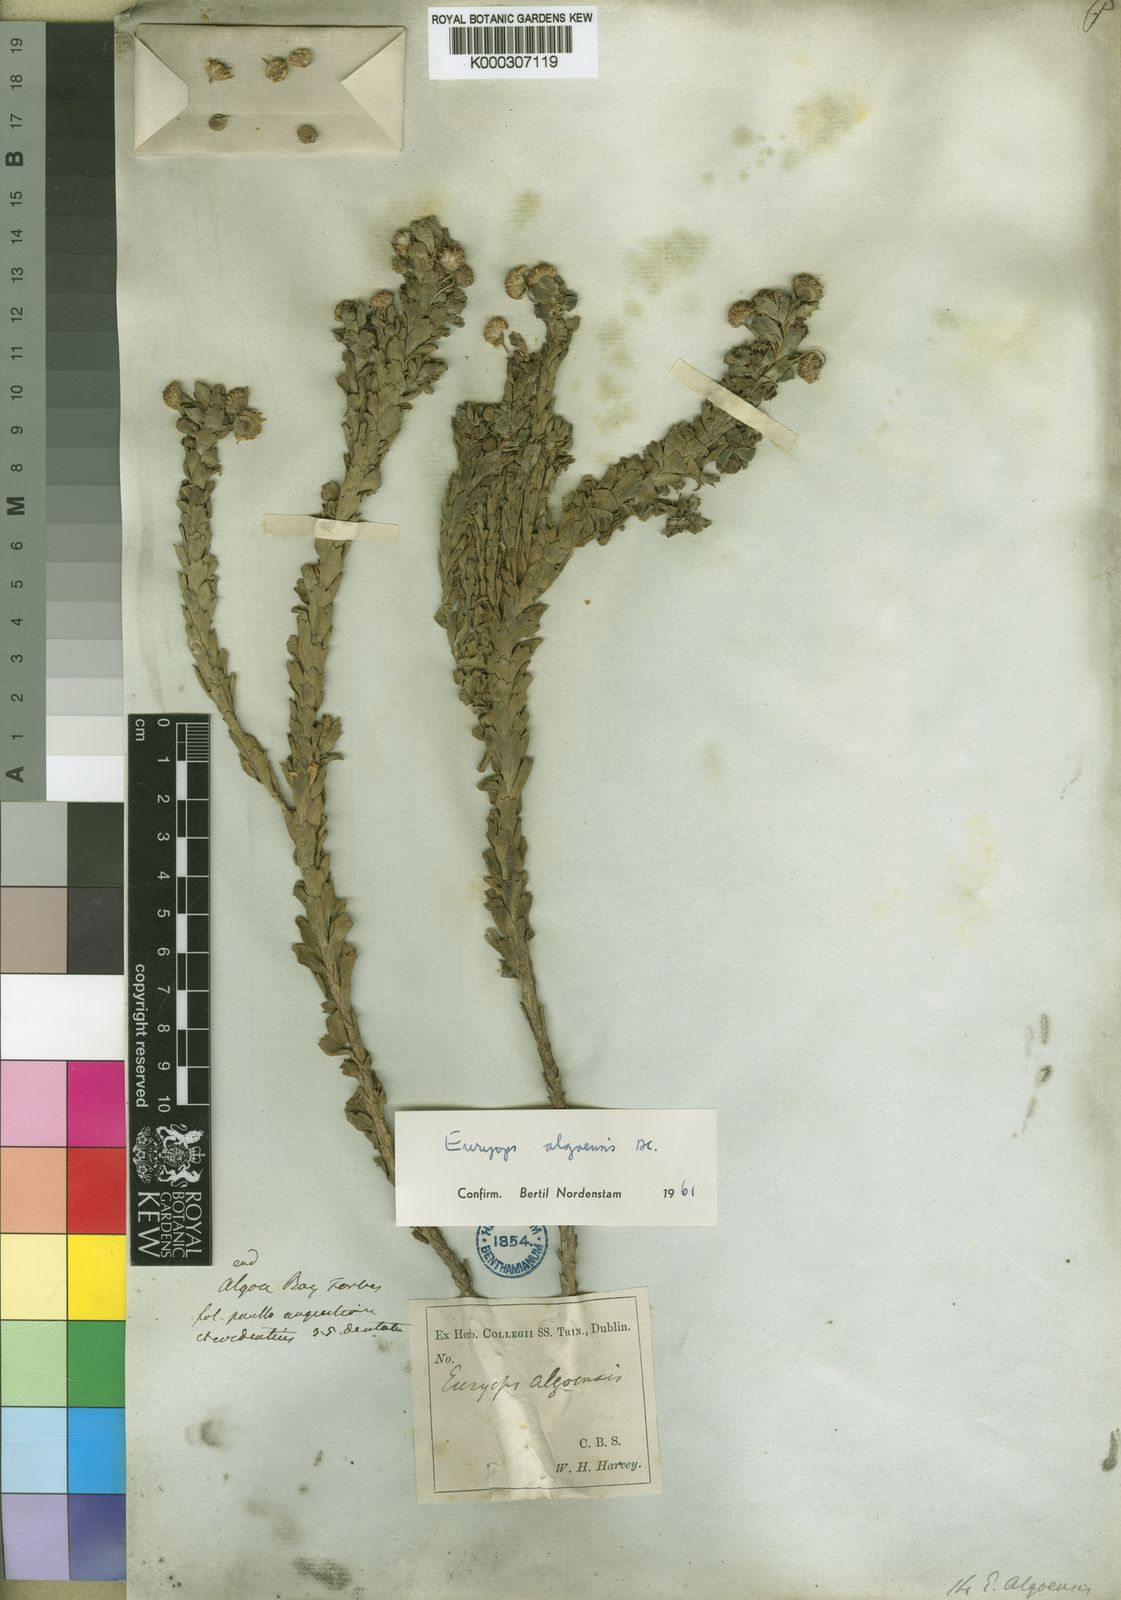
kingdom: Plantae
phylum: Tracheophyta
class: Magnoliopsida
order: Asterales
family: Asteraceae
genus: Euryops
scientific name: Euryops algoensis
